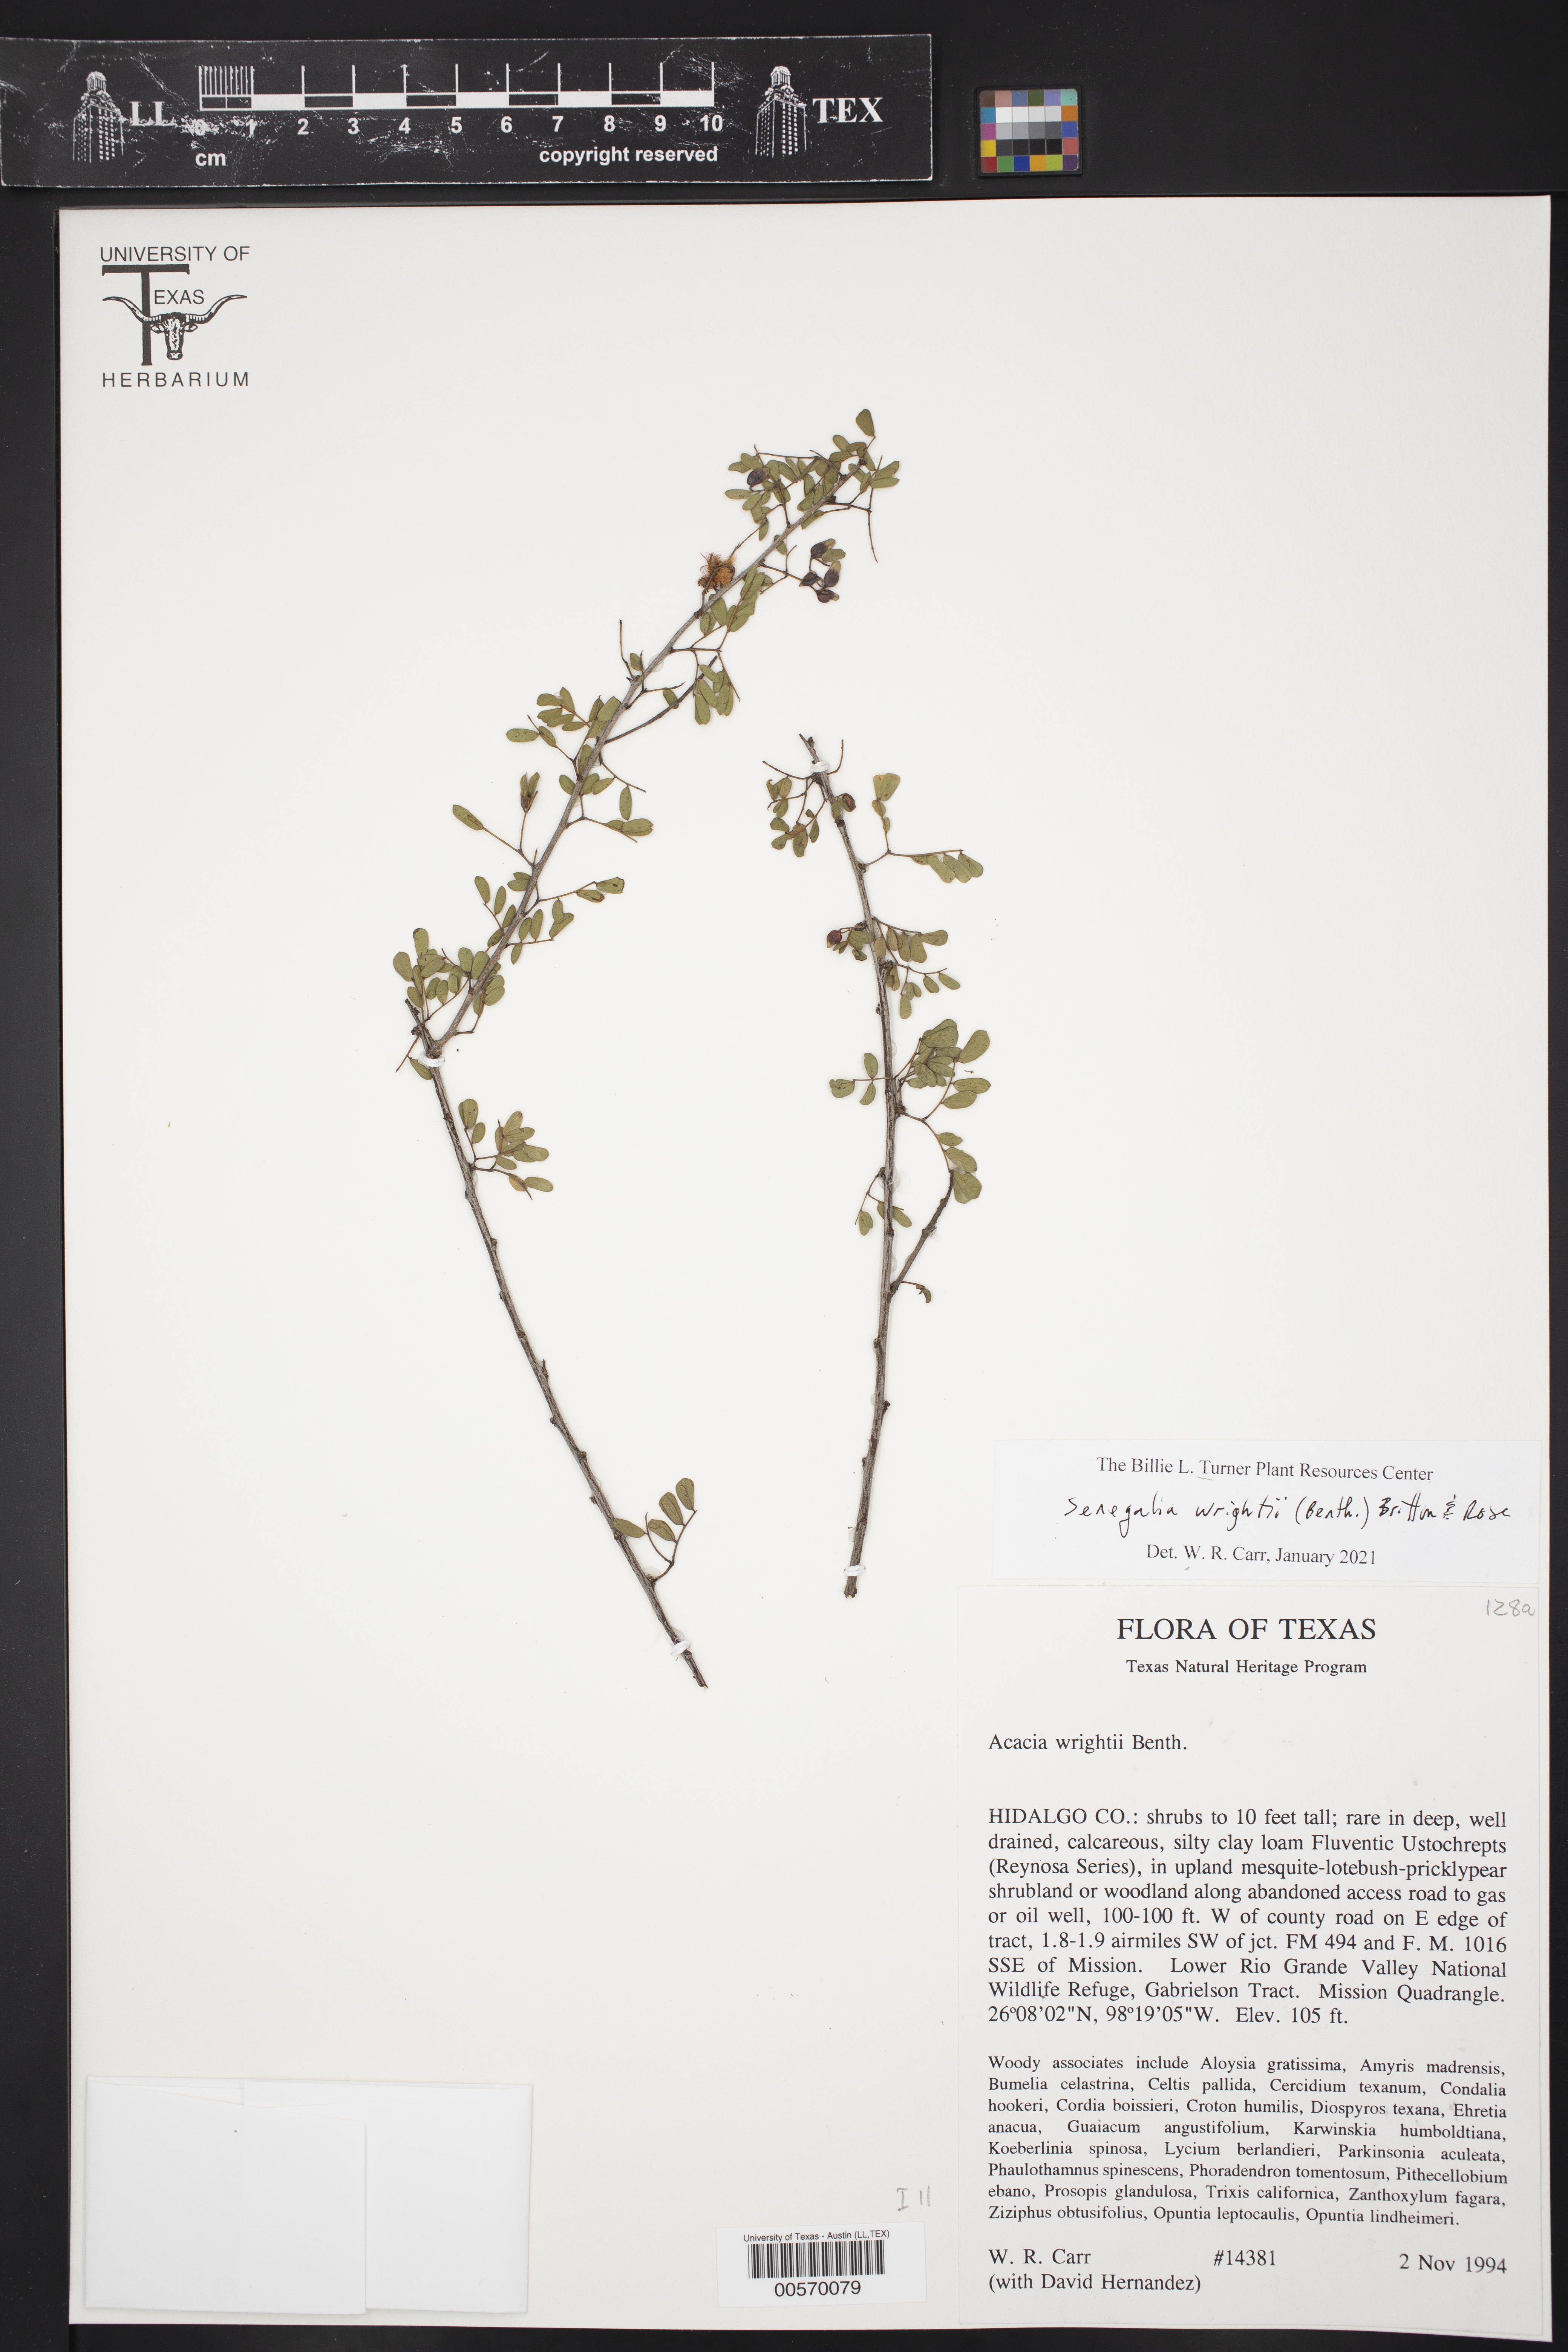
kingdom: Plantae
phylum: Tracheophyta
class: Magnoliopsida
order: Fabales
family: Fabaceae
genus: Senegalia
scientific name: Senegalia wrightii
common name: Texas cat's-claw
